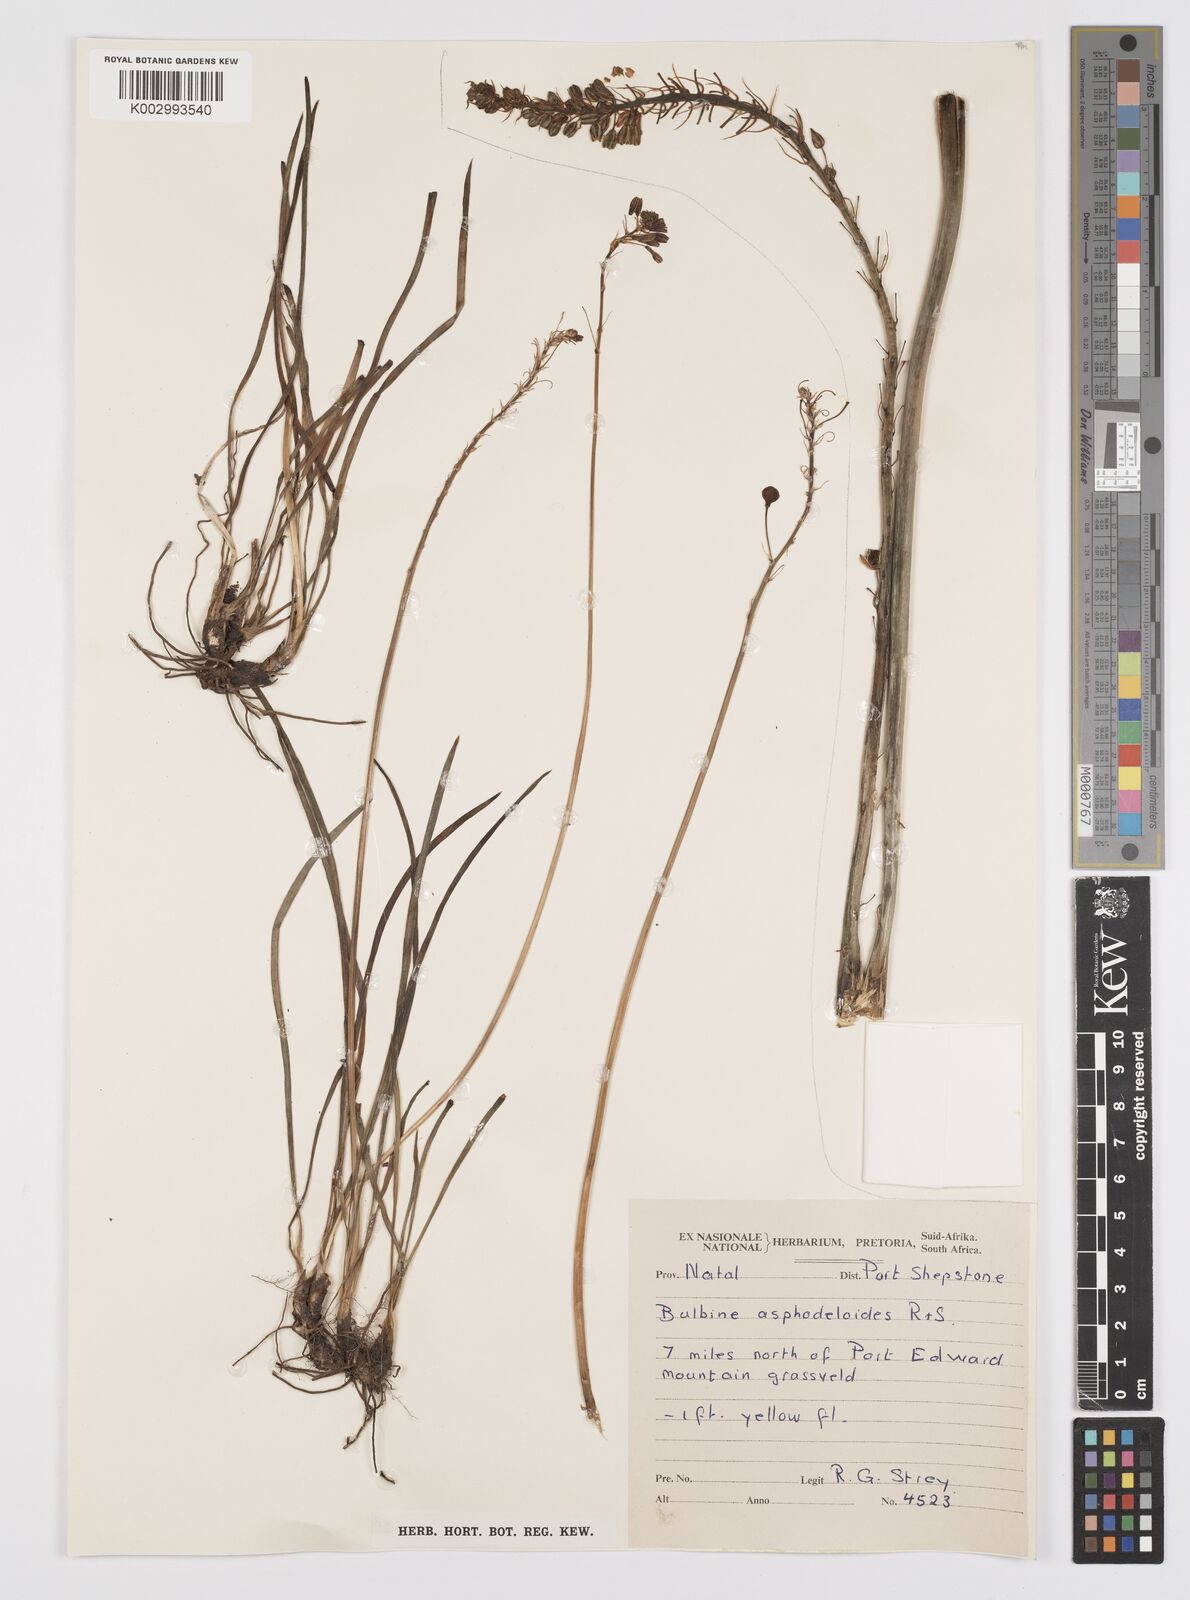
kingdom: Plantae
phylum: Tracheophyta
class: Liliopsida
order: Asparagales
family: Asphodelaceae
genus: Bulbine
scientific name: Bulbine asphodeloides
